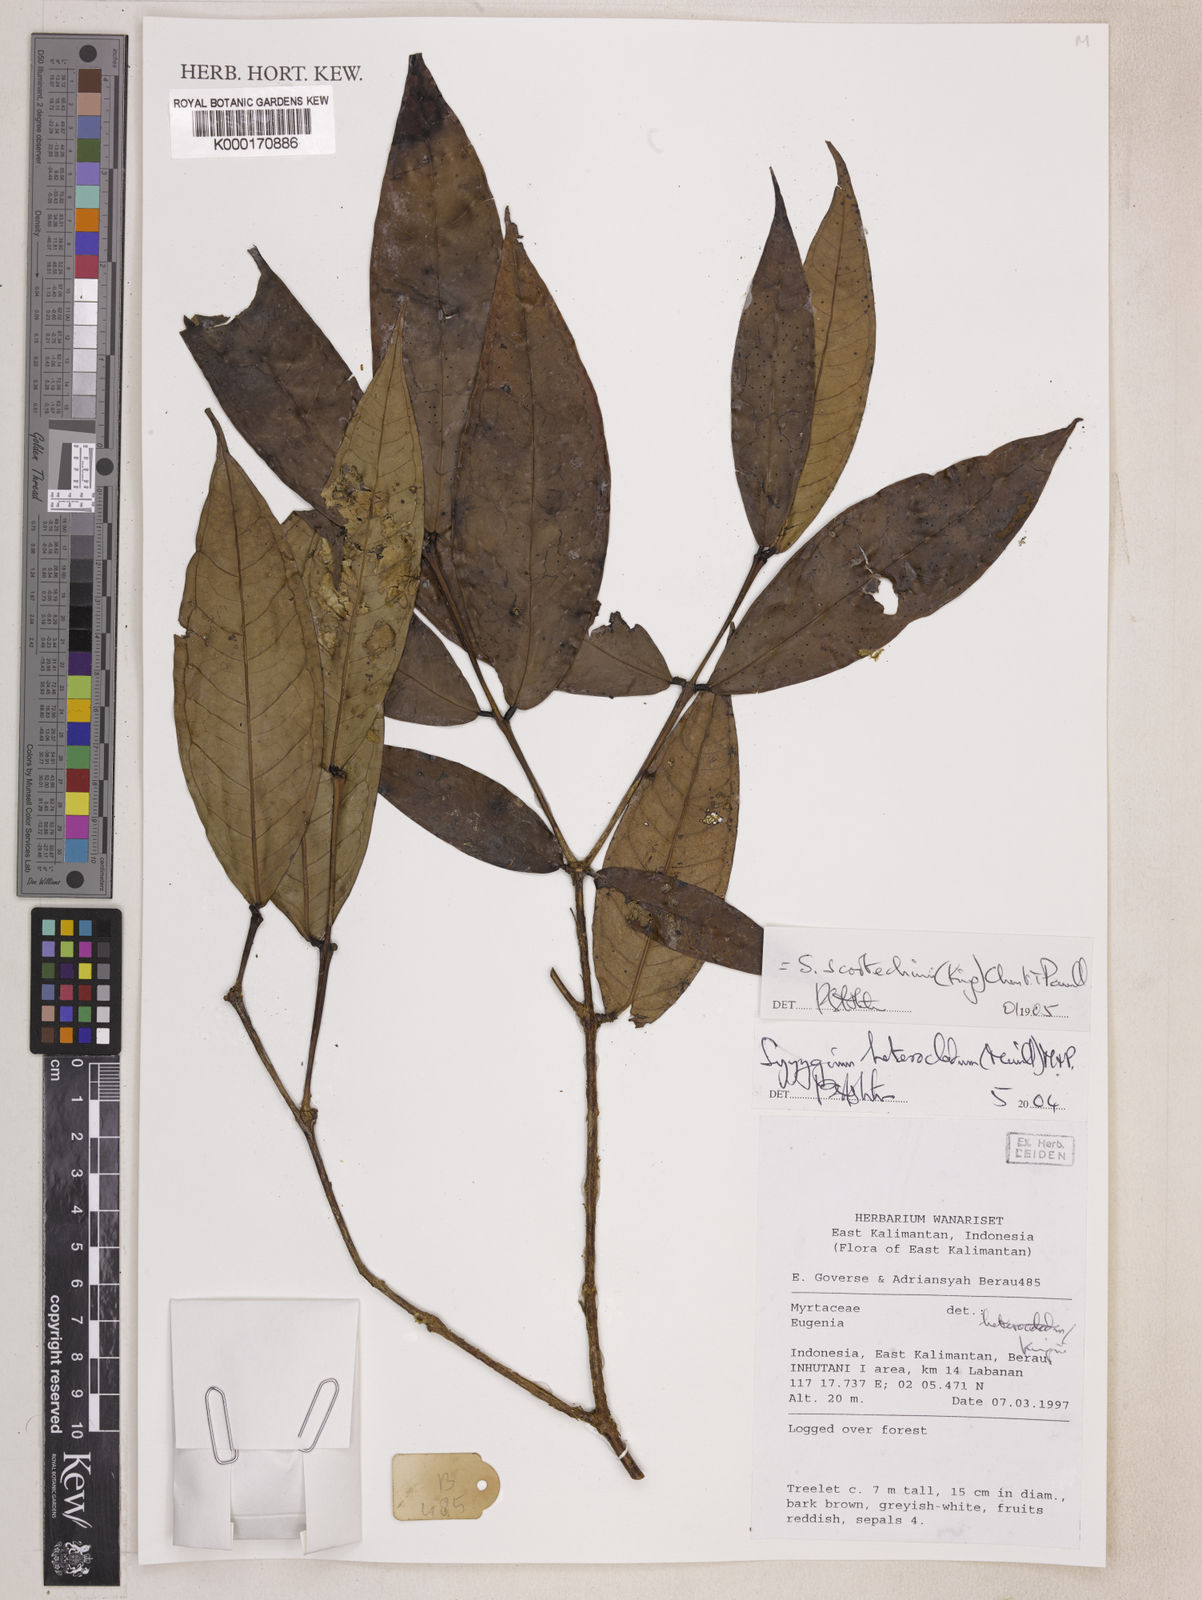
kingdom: Plantae
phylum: Tracheophyta
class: Magnoliopsida
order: Myrtales
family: Myrtaceae
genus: Syzygium
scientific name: Syzygium scortechinii
